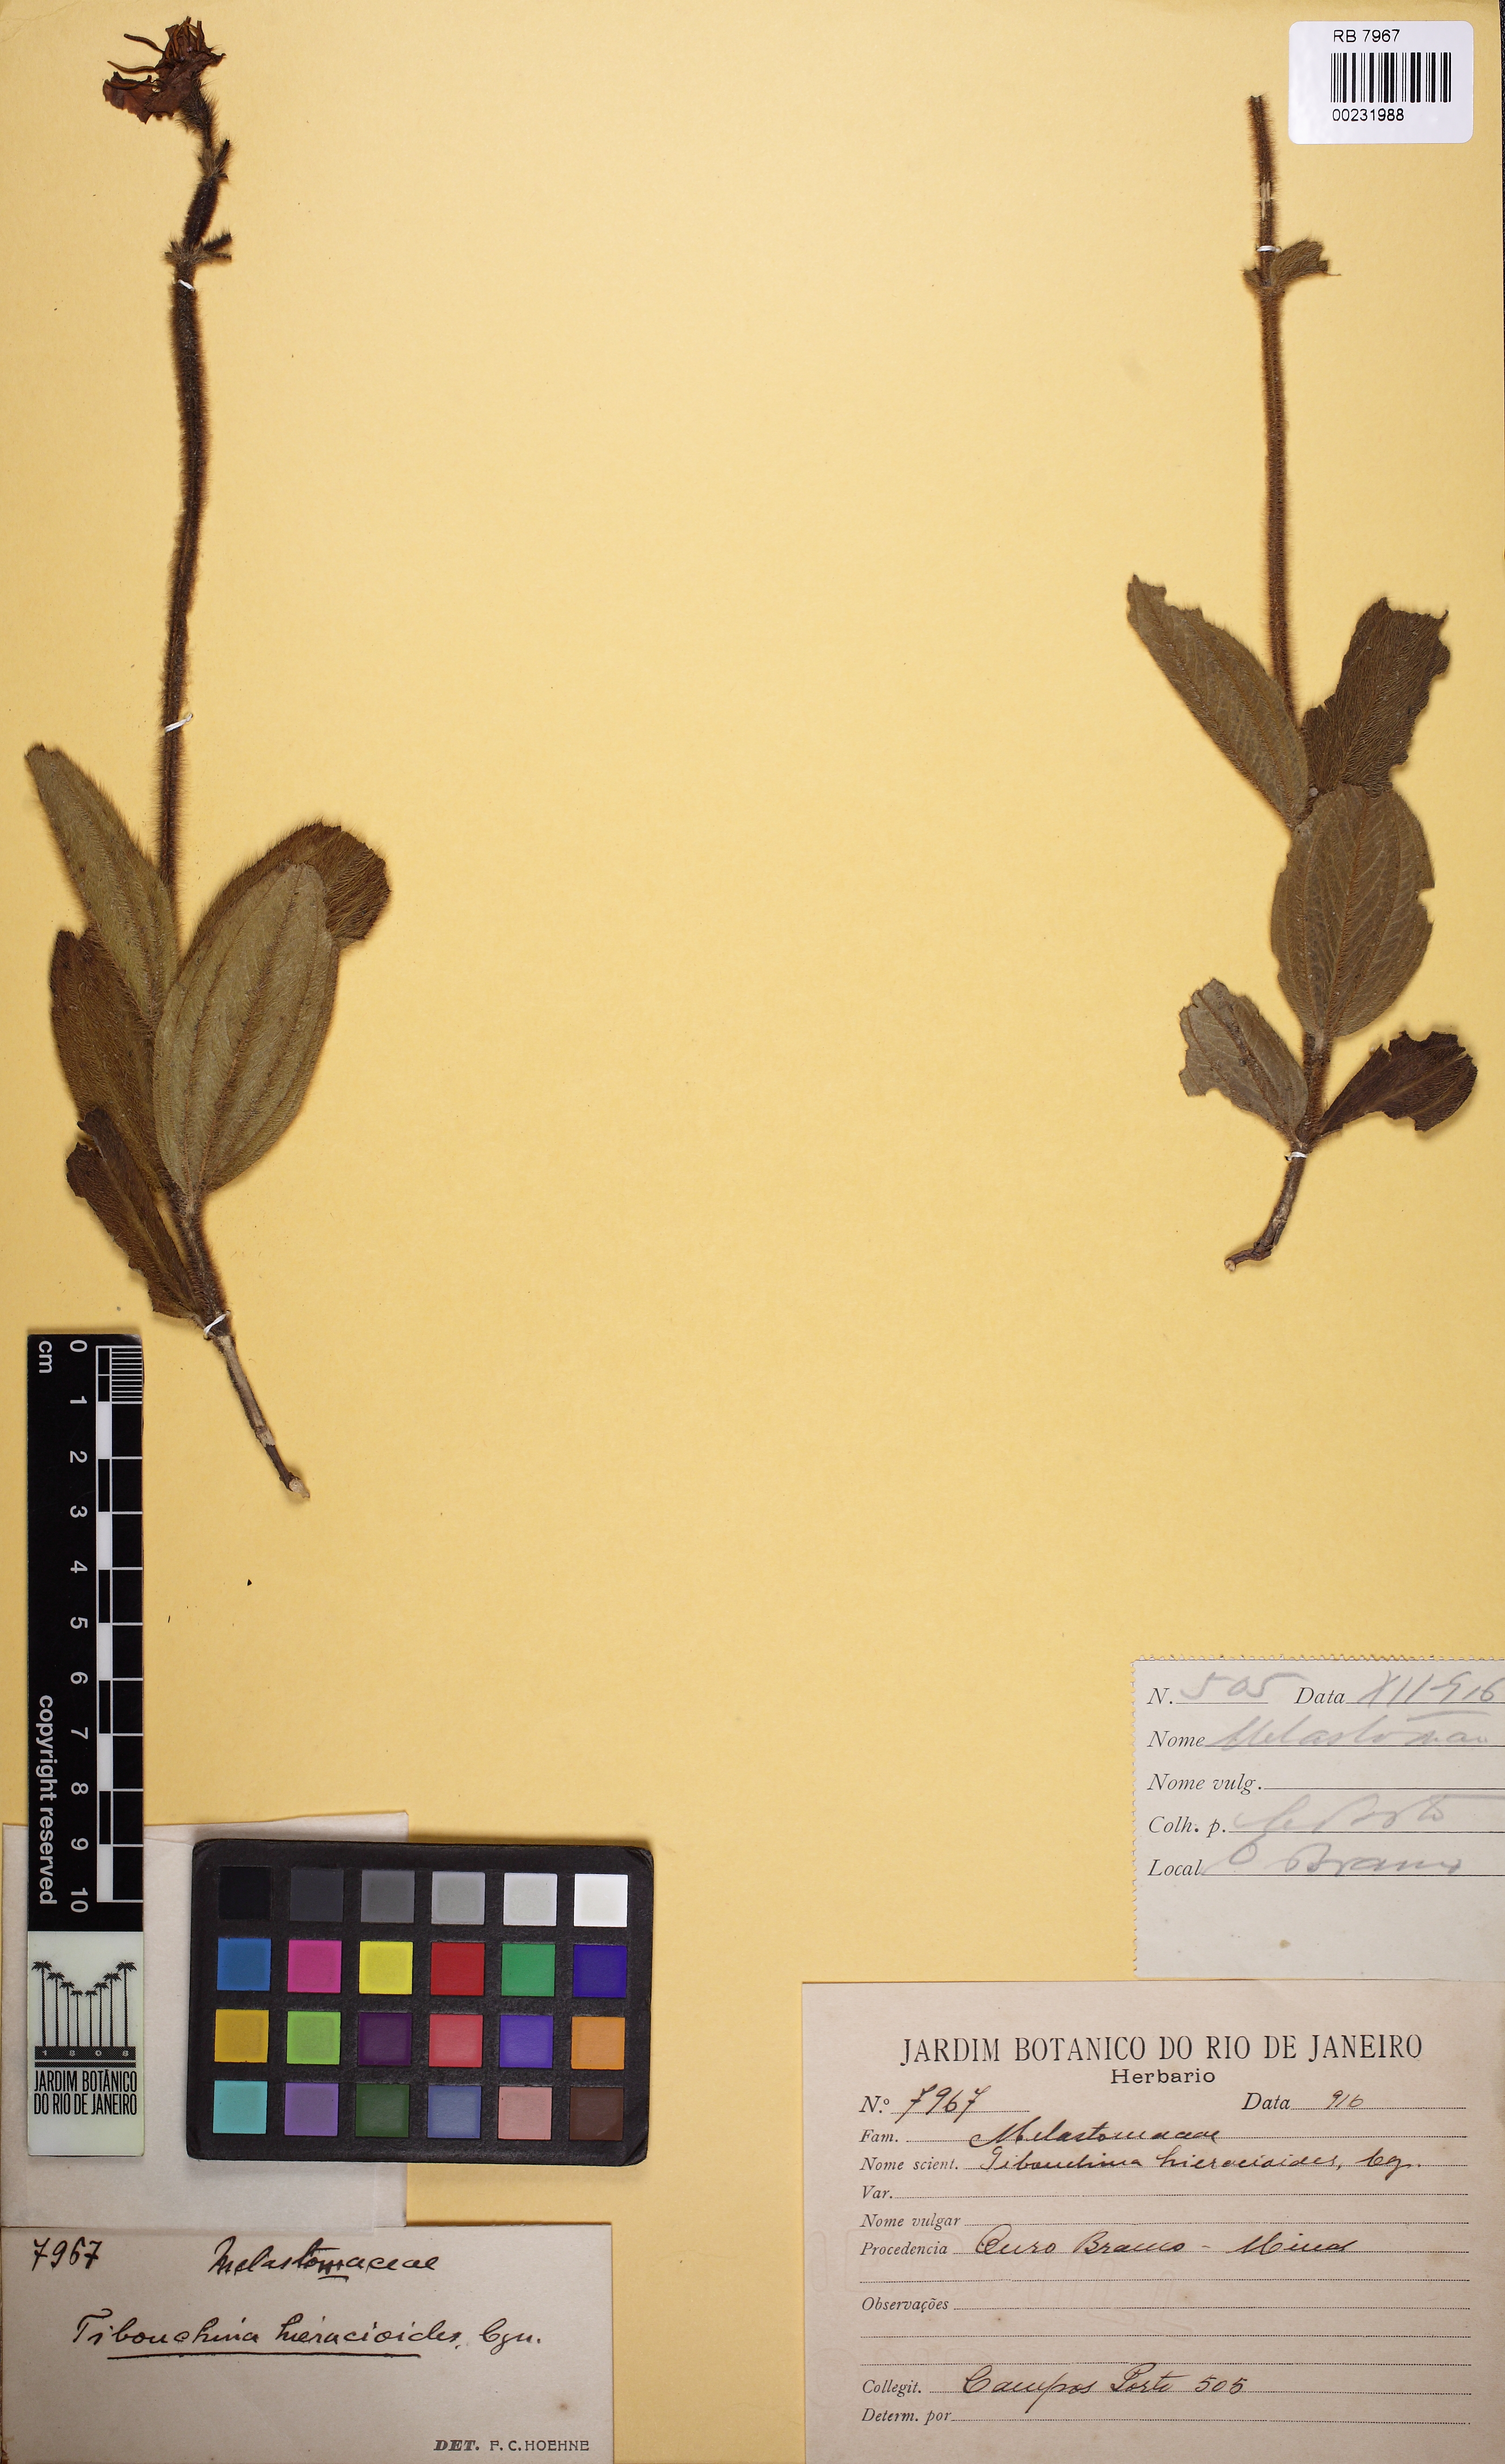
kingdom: Plantae
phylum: Tracheophyta
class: Magnoliopsida
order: Myrtales
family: Melastomataceae
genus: Chaetogastra
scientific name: Chaetogastra hieracioides
